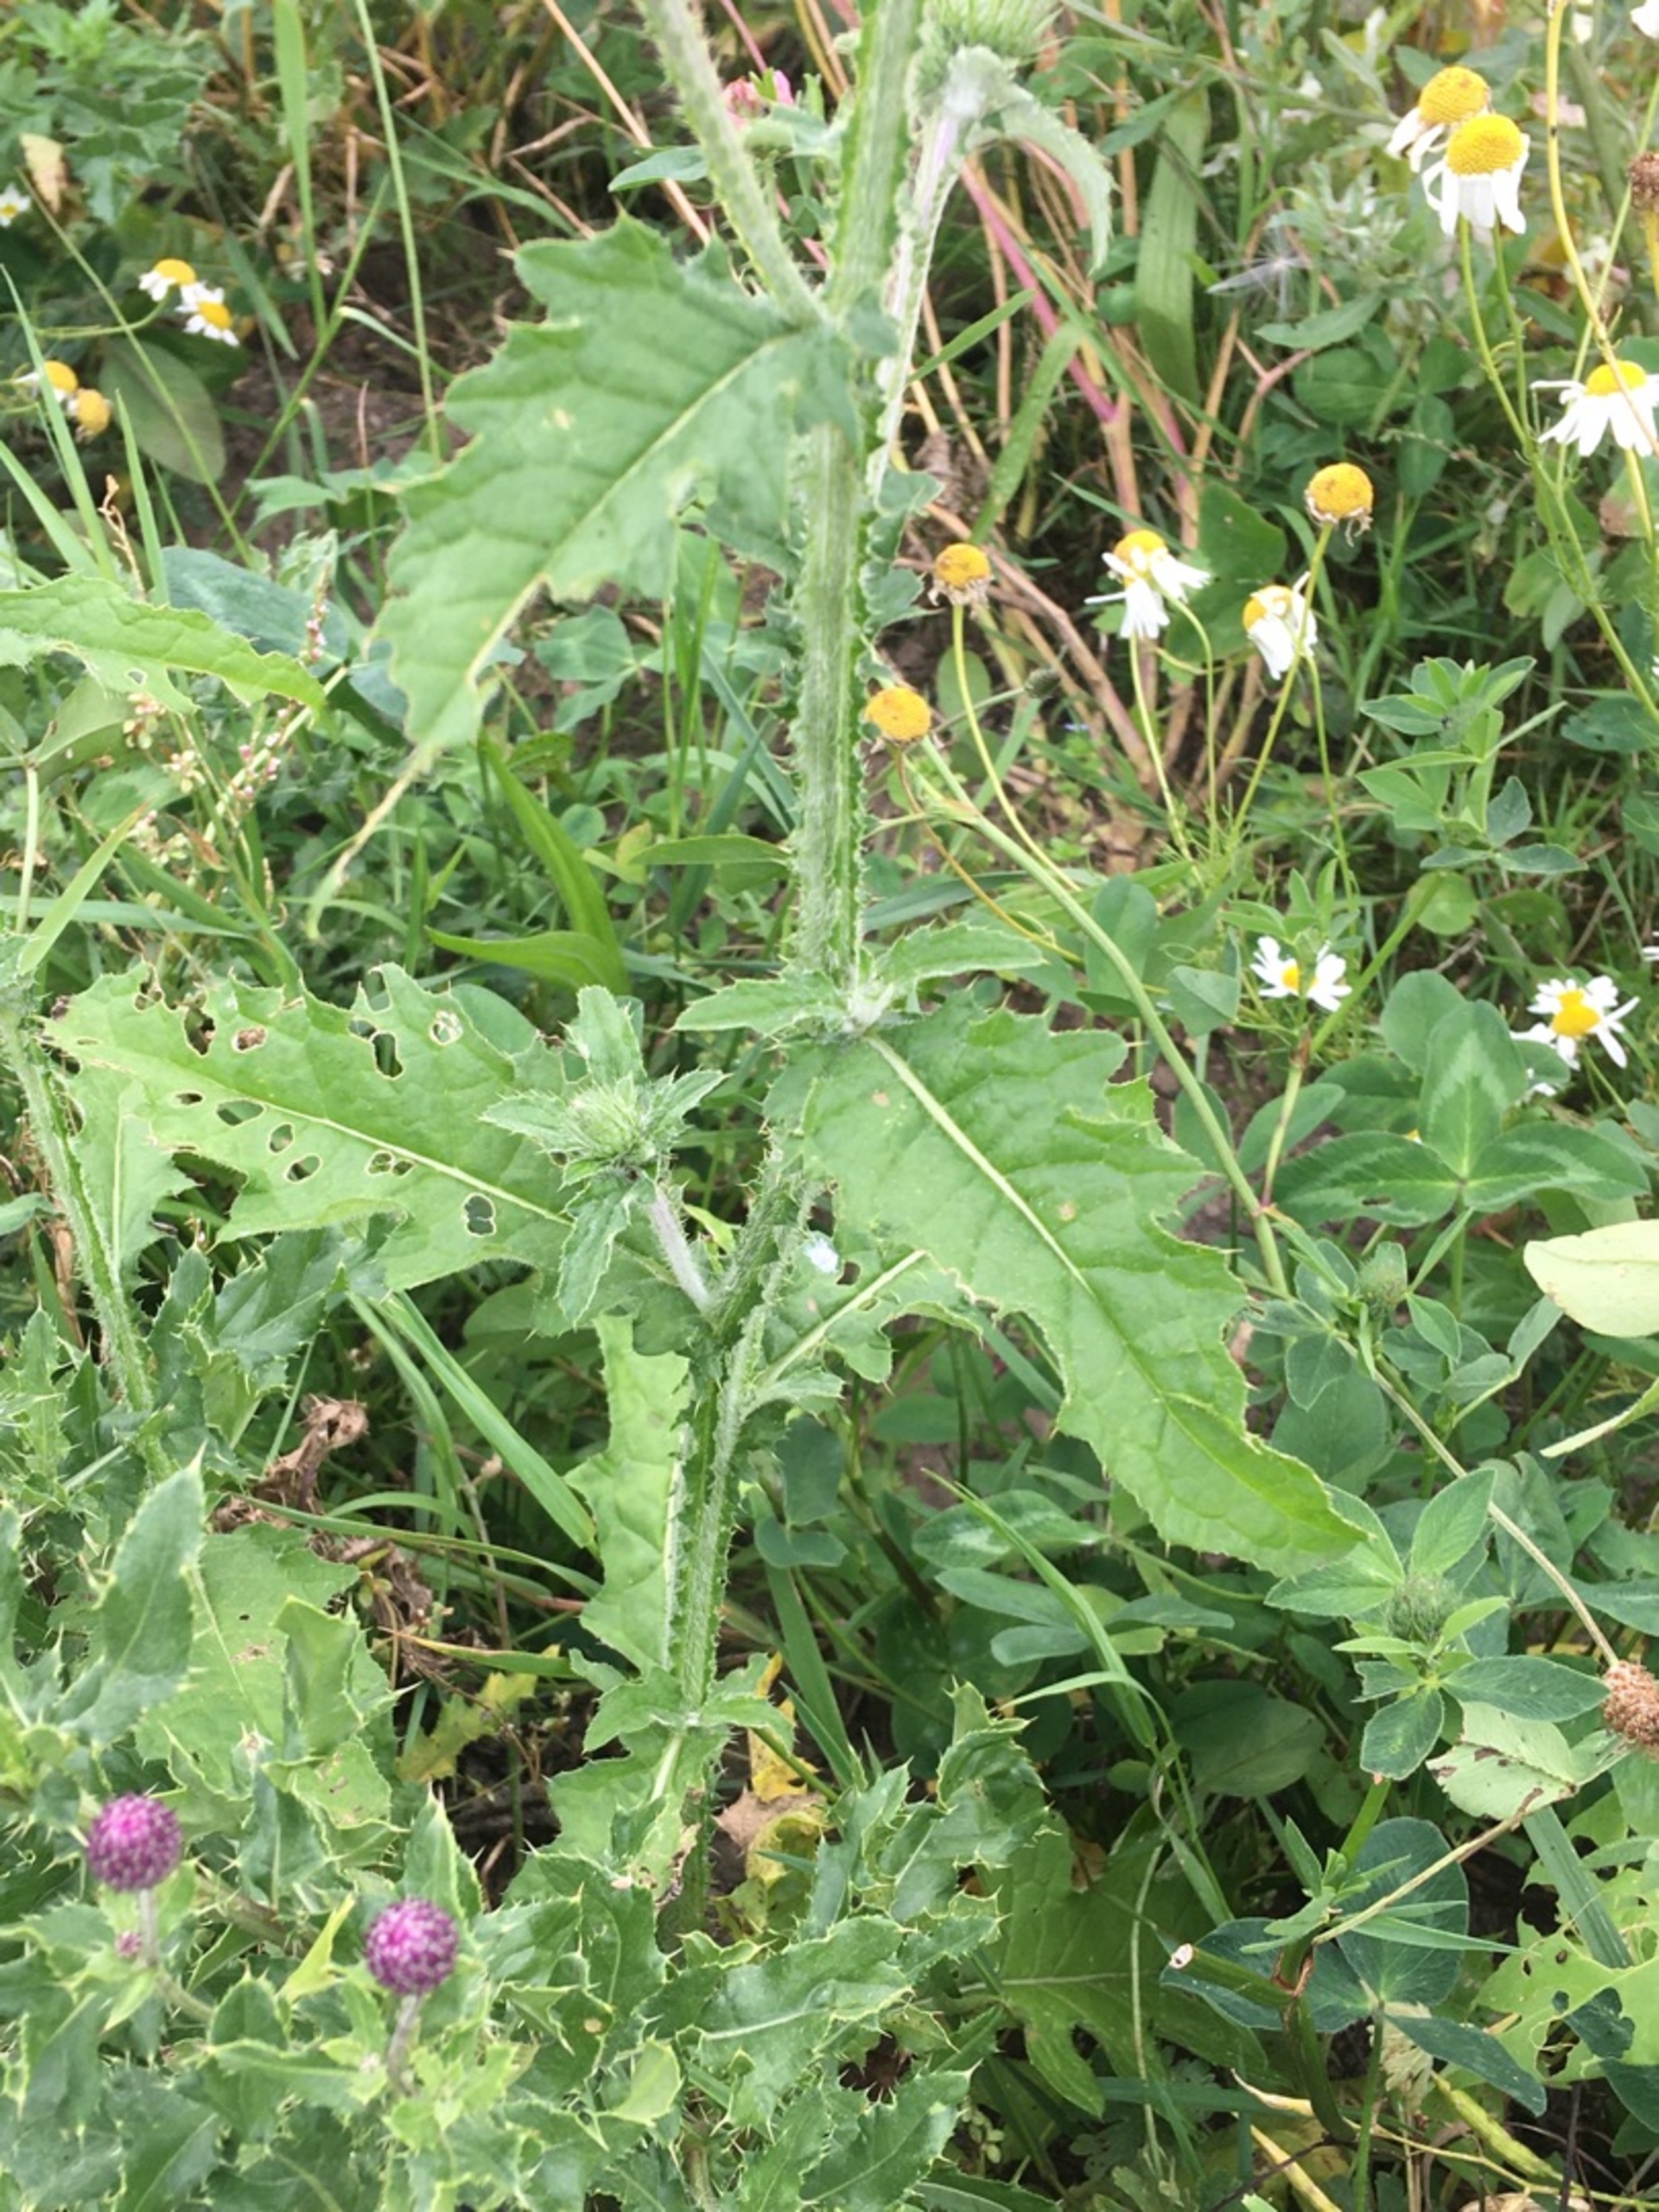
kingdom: Plantae
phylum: Tracheophyta
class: Magnoliopsida
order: Asterales
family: Asteraceae
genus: Carduus
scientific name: Carduus crispus
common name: Kruset tidsel
